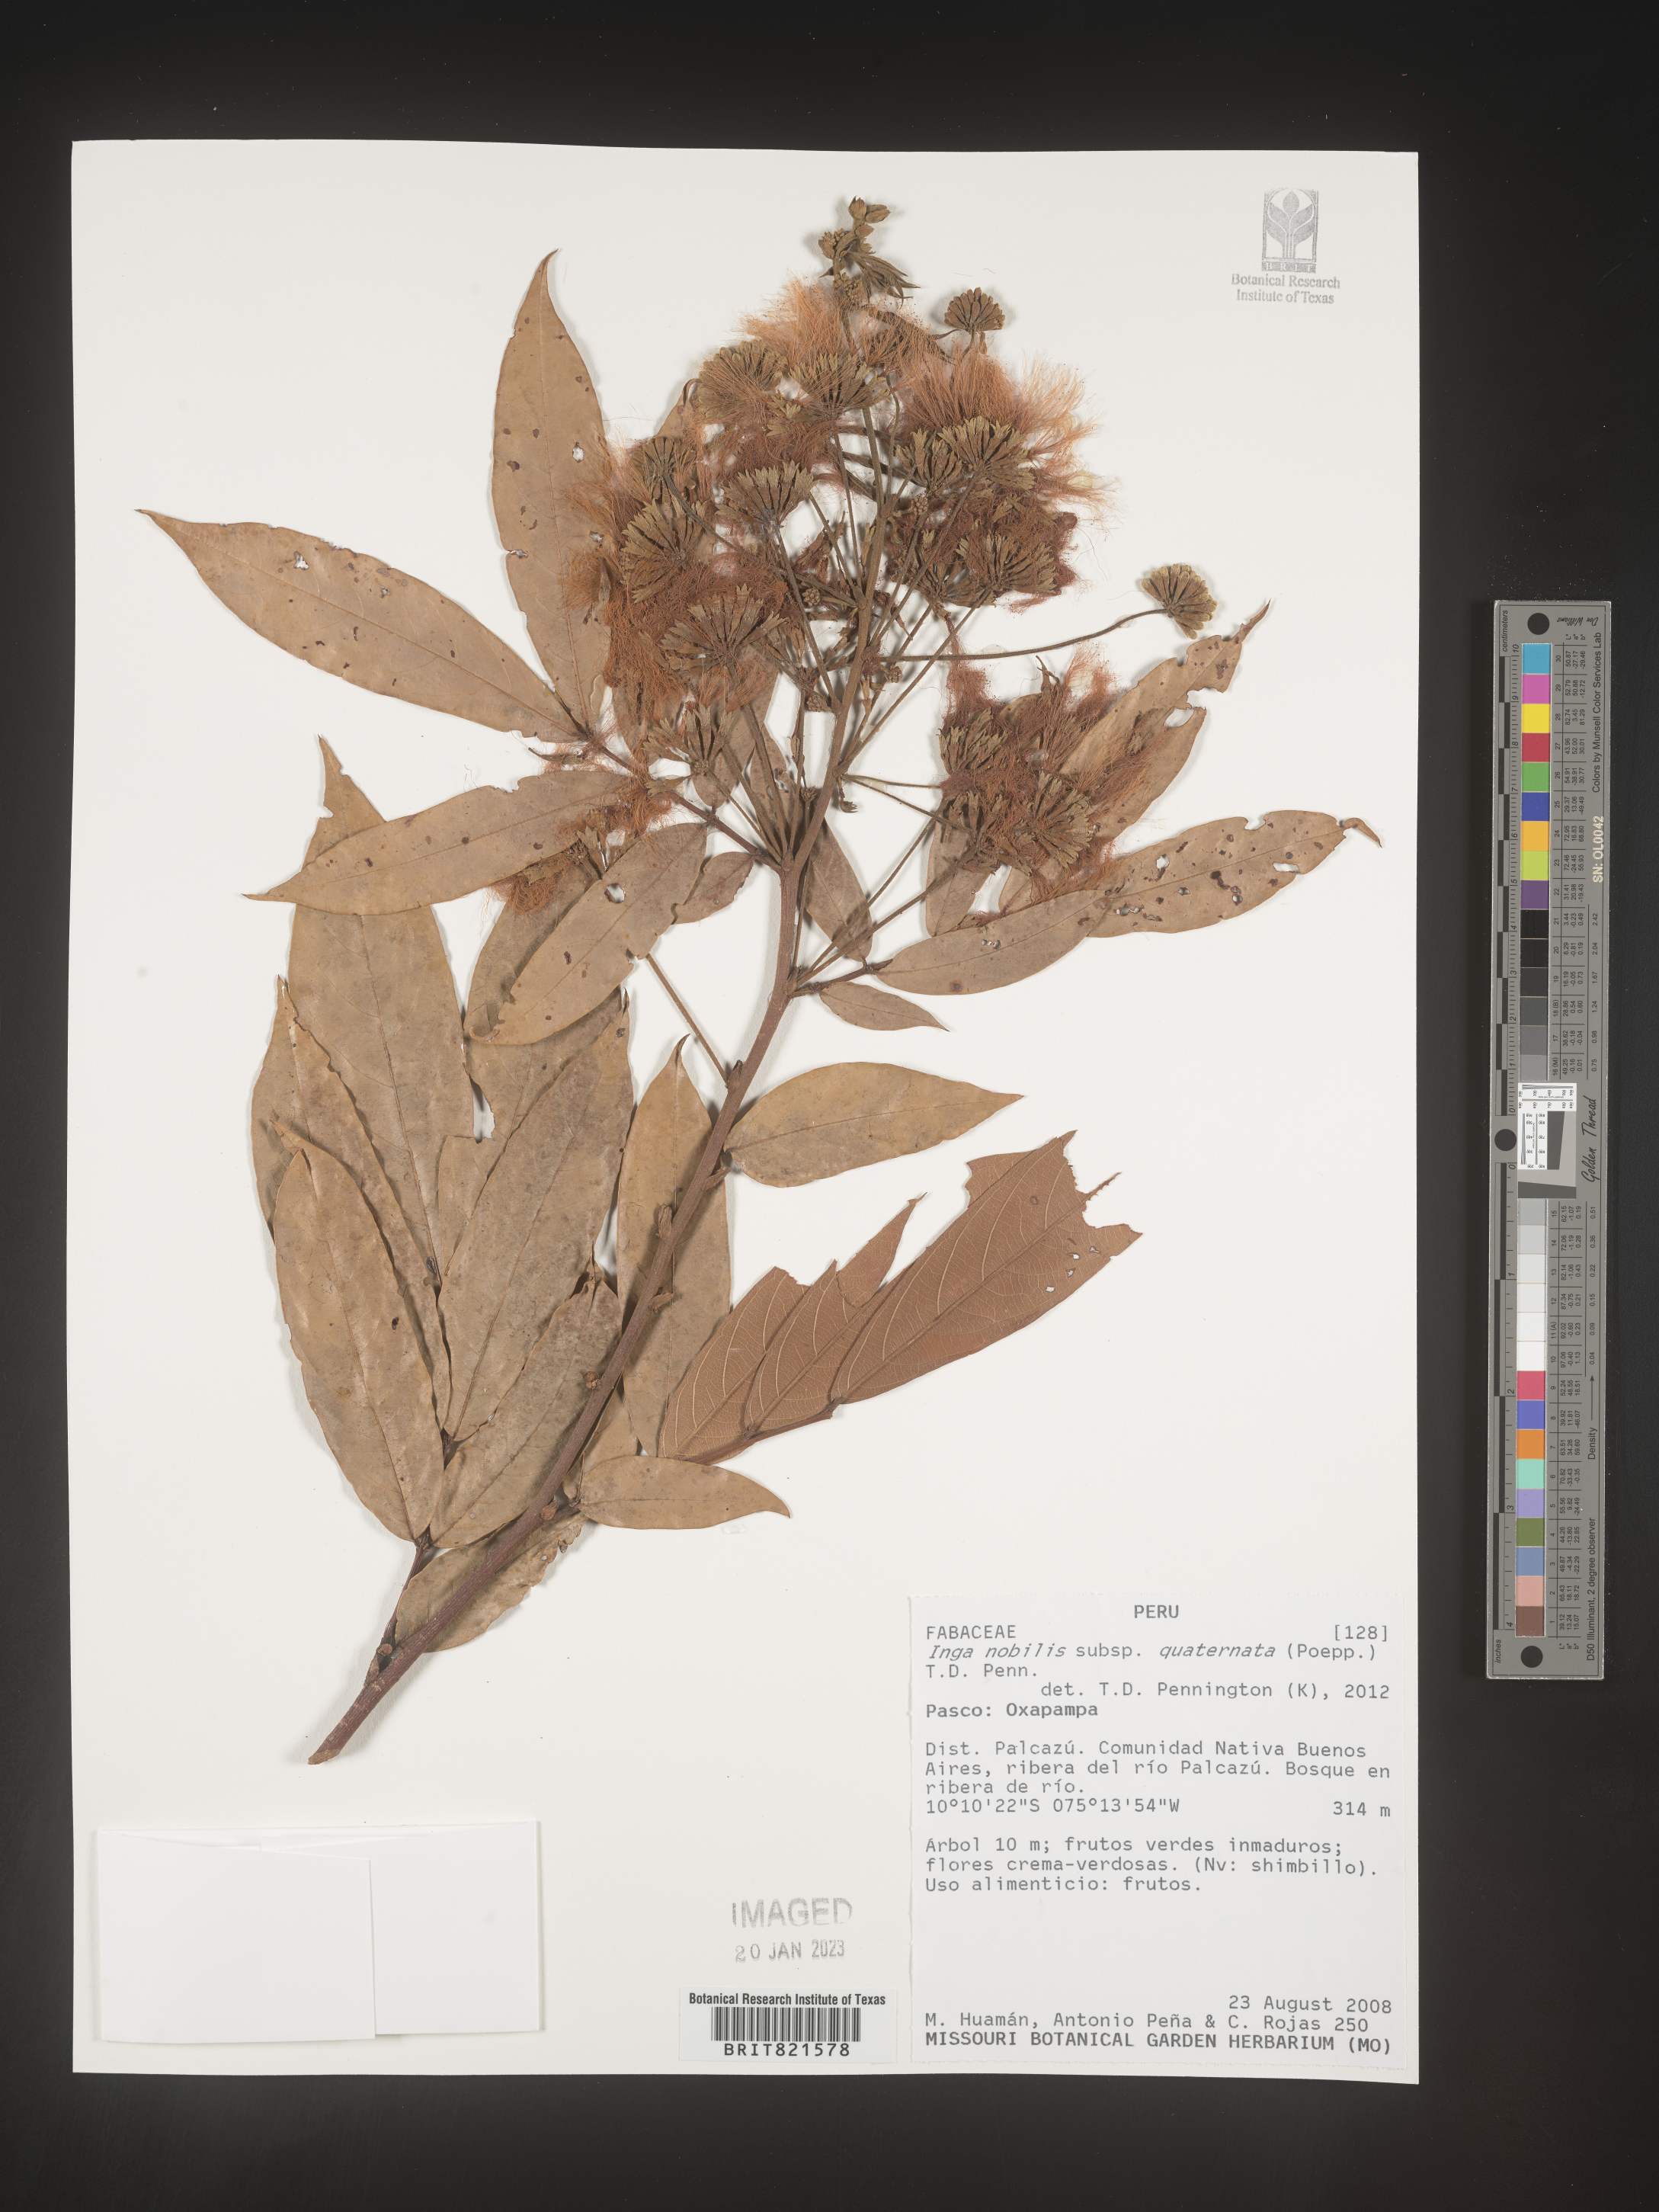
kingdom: Plantae
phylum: Tracheophyta
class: Magnoliopsida
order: Fabales
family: Fabaceae
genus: Inga
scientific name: Inga
